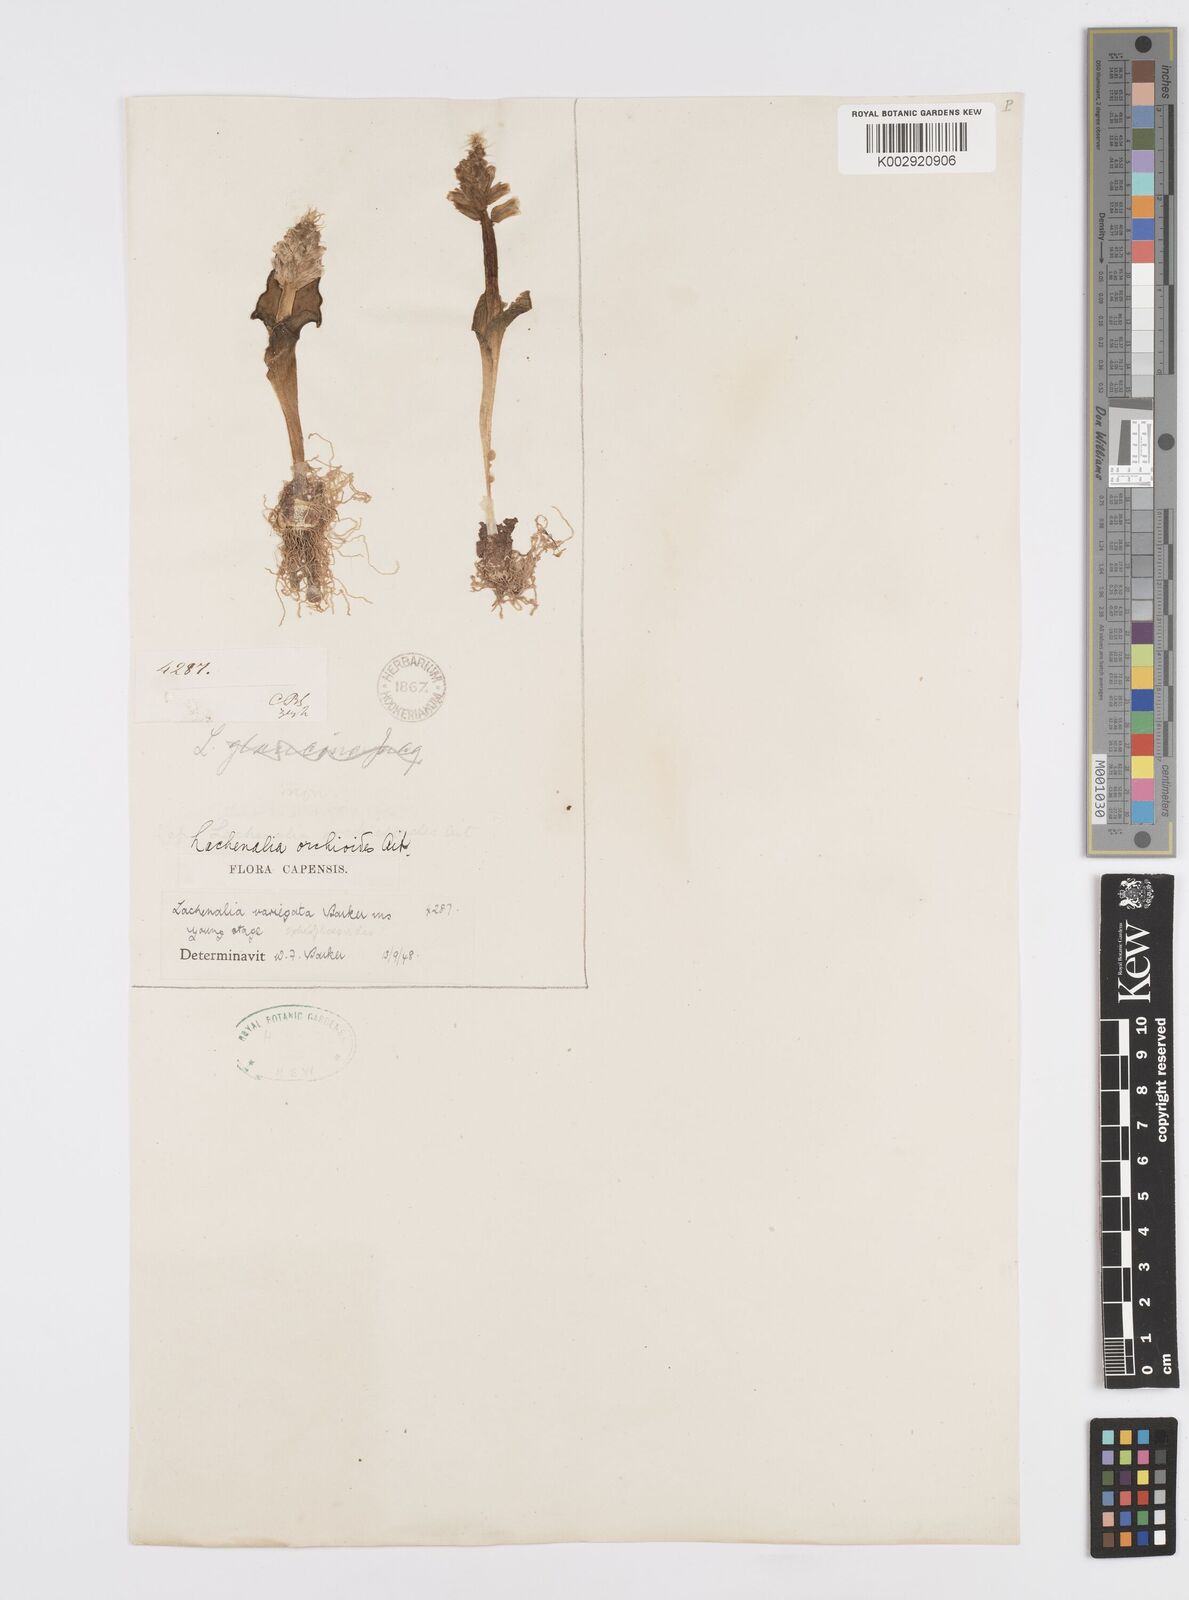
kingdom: Plantae
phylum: Tracheophyta
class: Liliopsida
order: Asparagales
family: Asparagaceae
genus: Lachenalia
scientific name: Lachenalia variegata
